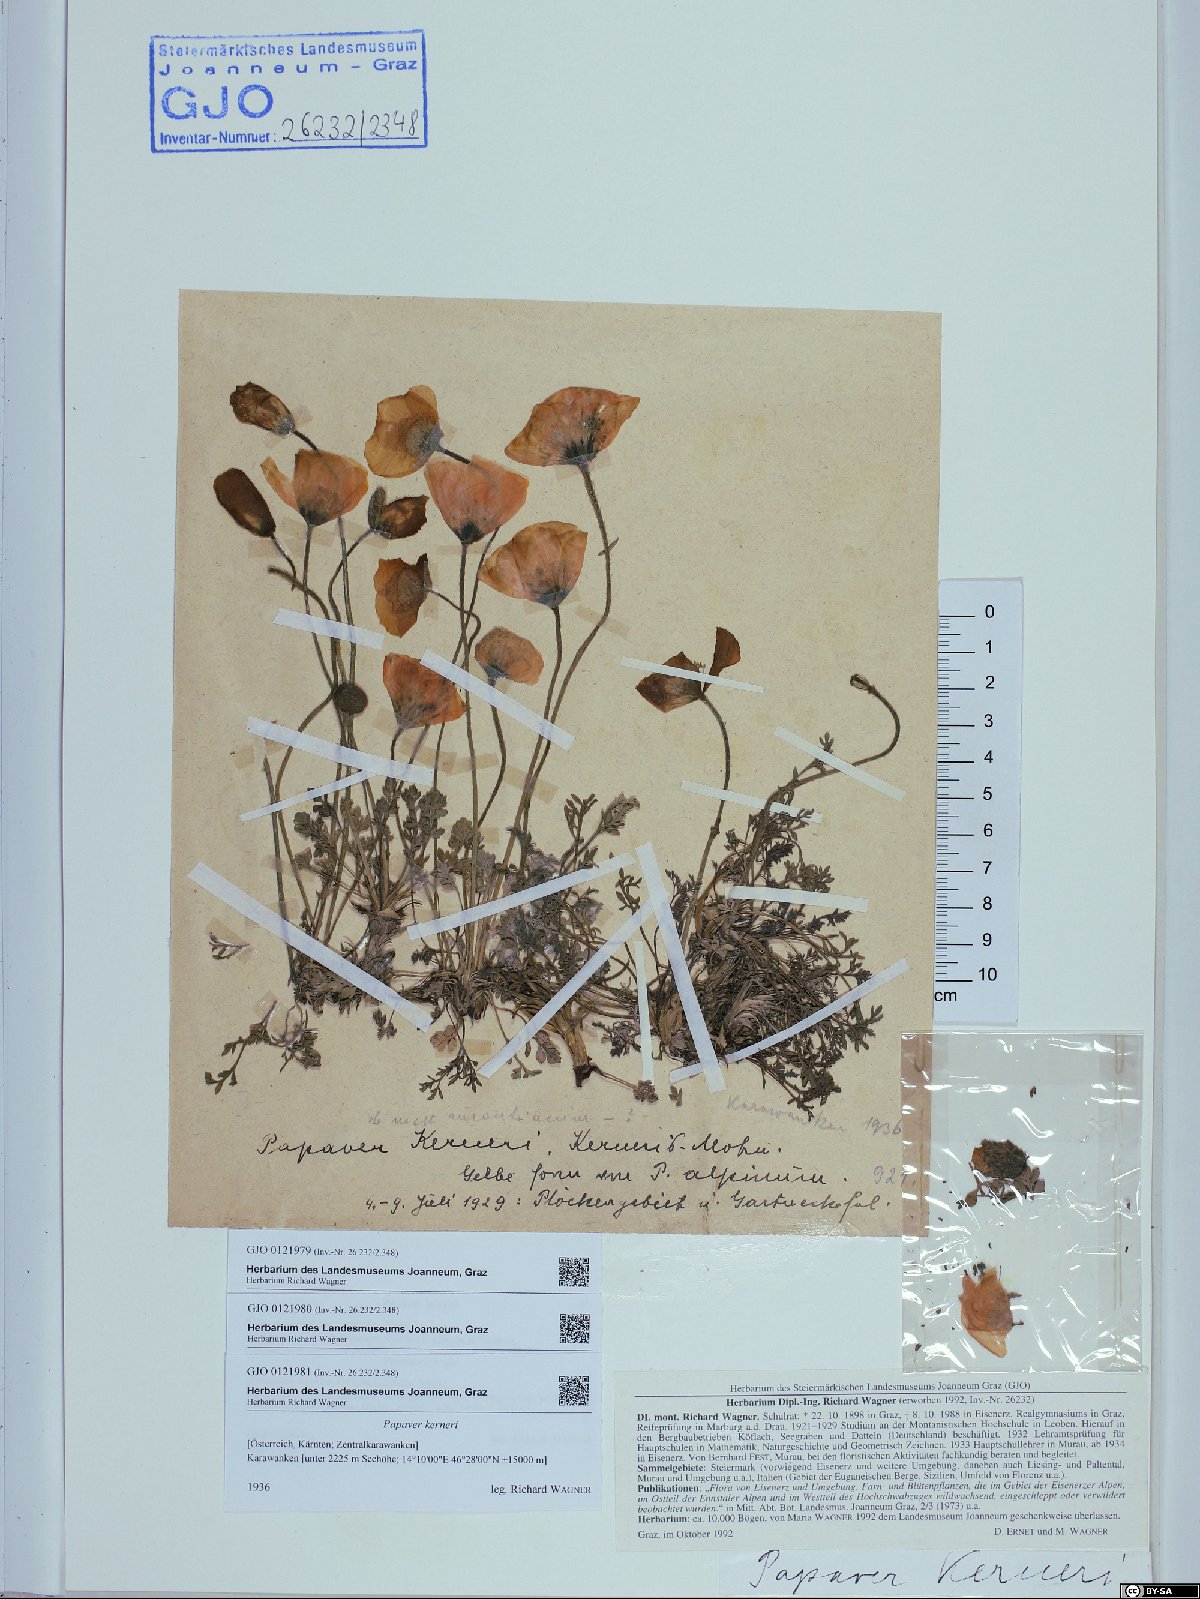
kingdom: Plantae
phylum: Tracheophyta
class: Magnoliopsida
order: Ranunculales
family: Papaveraceae
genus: Papaver
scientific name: Papaver alpinum
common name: Austrian poppy
